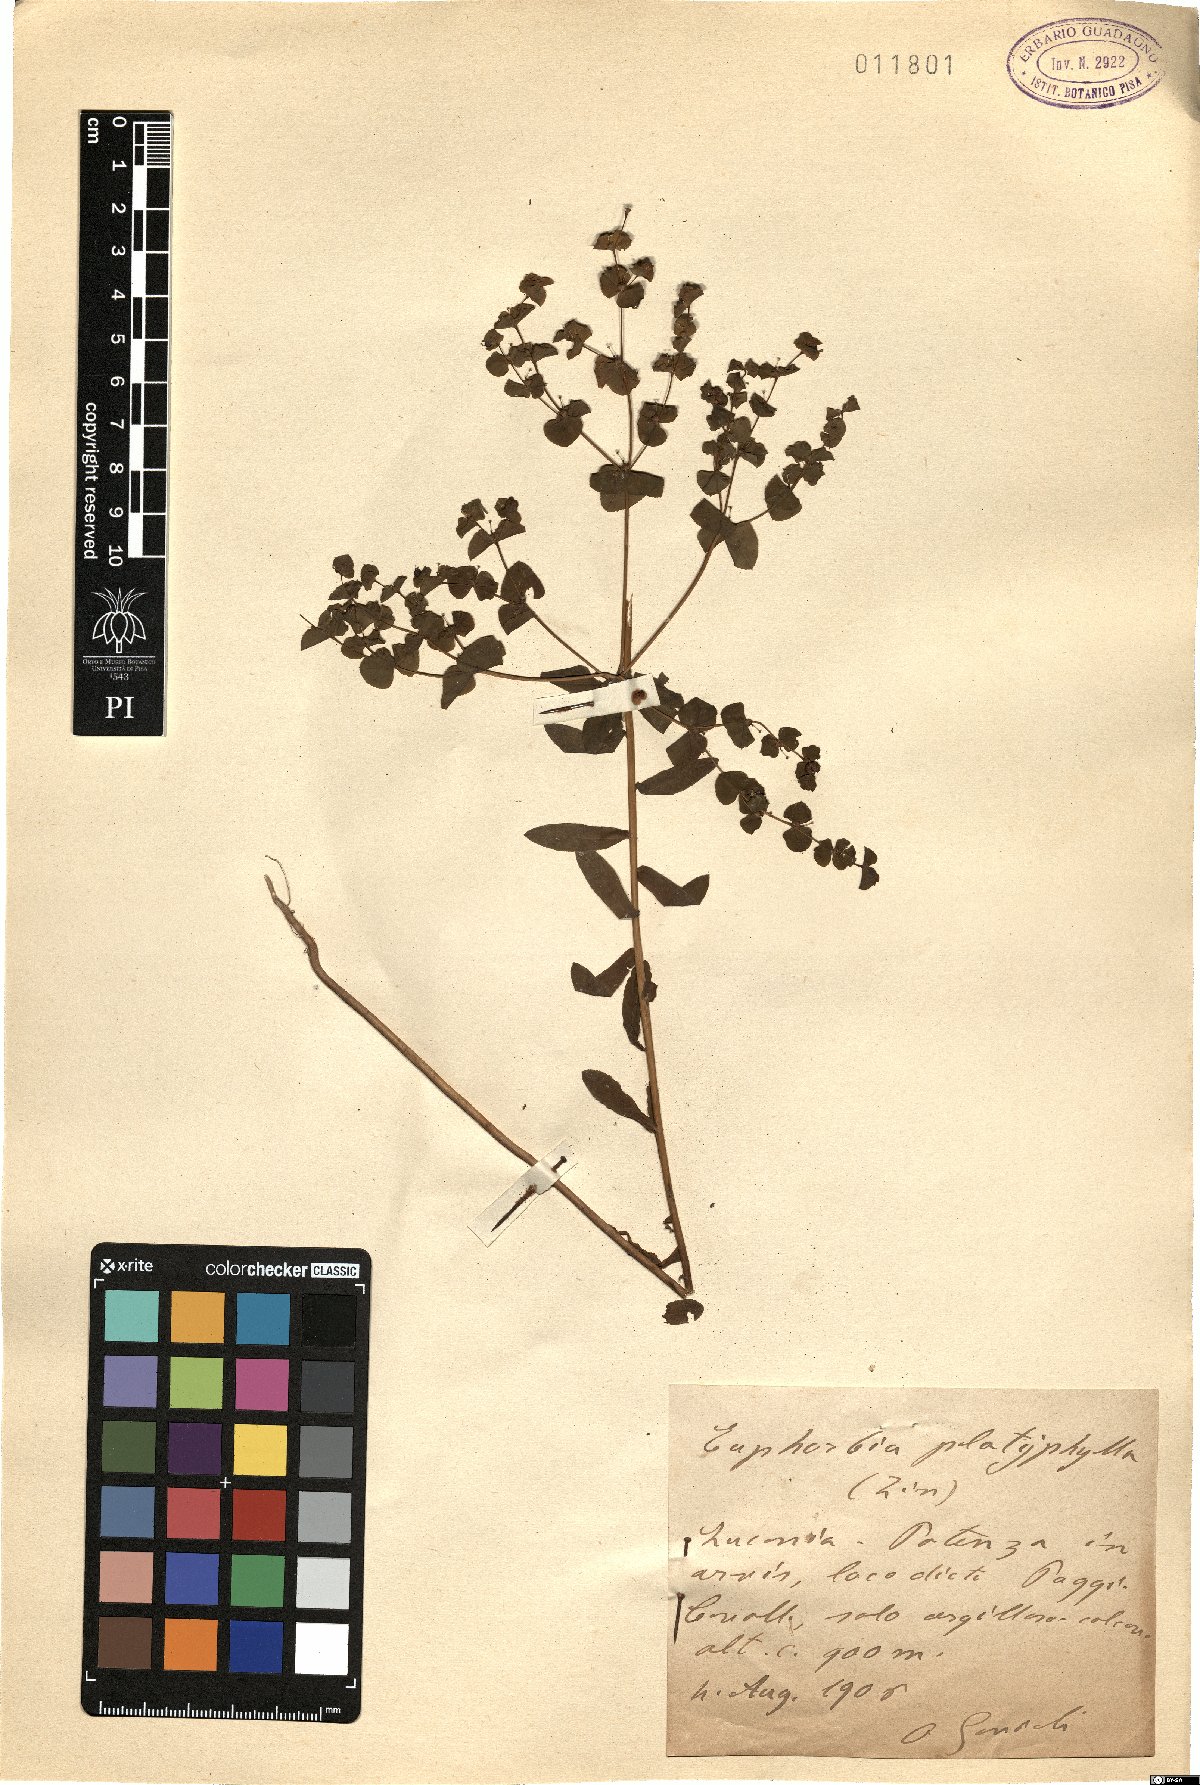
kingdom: Plantae
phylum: Tracheophyta
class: Magnoliopsida
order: Malpighiales
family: Euphorbiaceae
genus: Euphorbia
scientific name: Euphorbia platyphyllos
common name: Broad-leaved spurge
